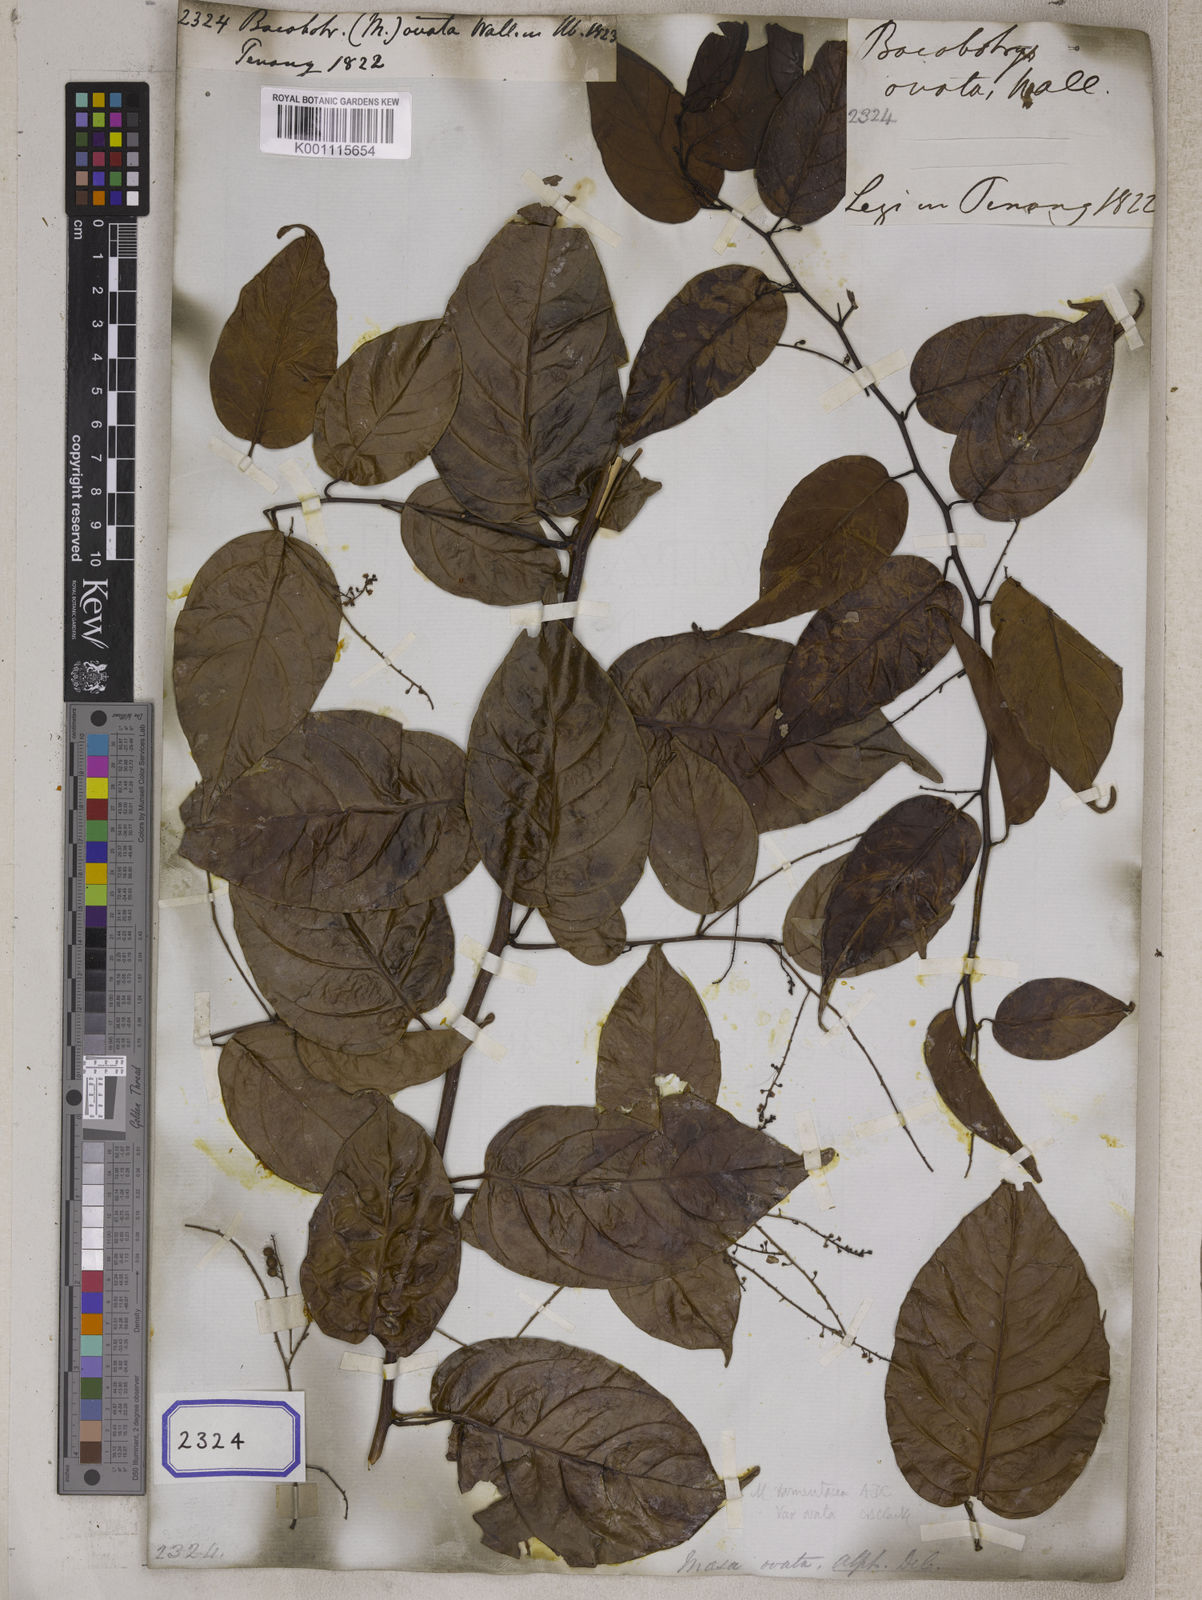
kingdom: Plantae
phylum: Tracheophyta
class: Magnoliopsida
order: Ericales
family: Primulaceae
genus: Maesa
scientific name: Maesa
